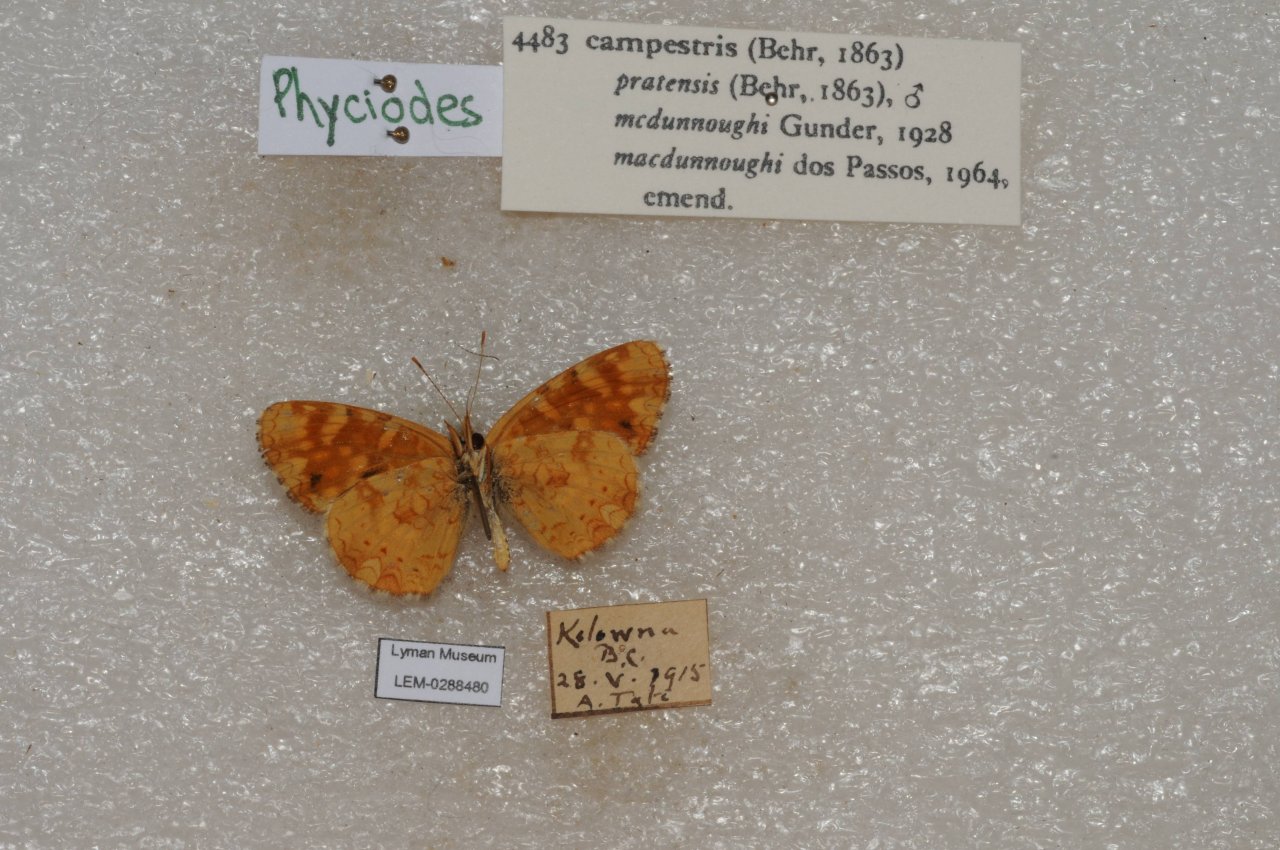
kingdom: Animalia
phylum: Arthropoda
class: Insecta
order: Lepidoptera
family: Nymphalidae
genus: Phyciodes
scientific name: Phyciodes tharos
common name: Field Crescent
